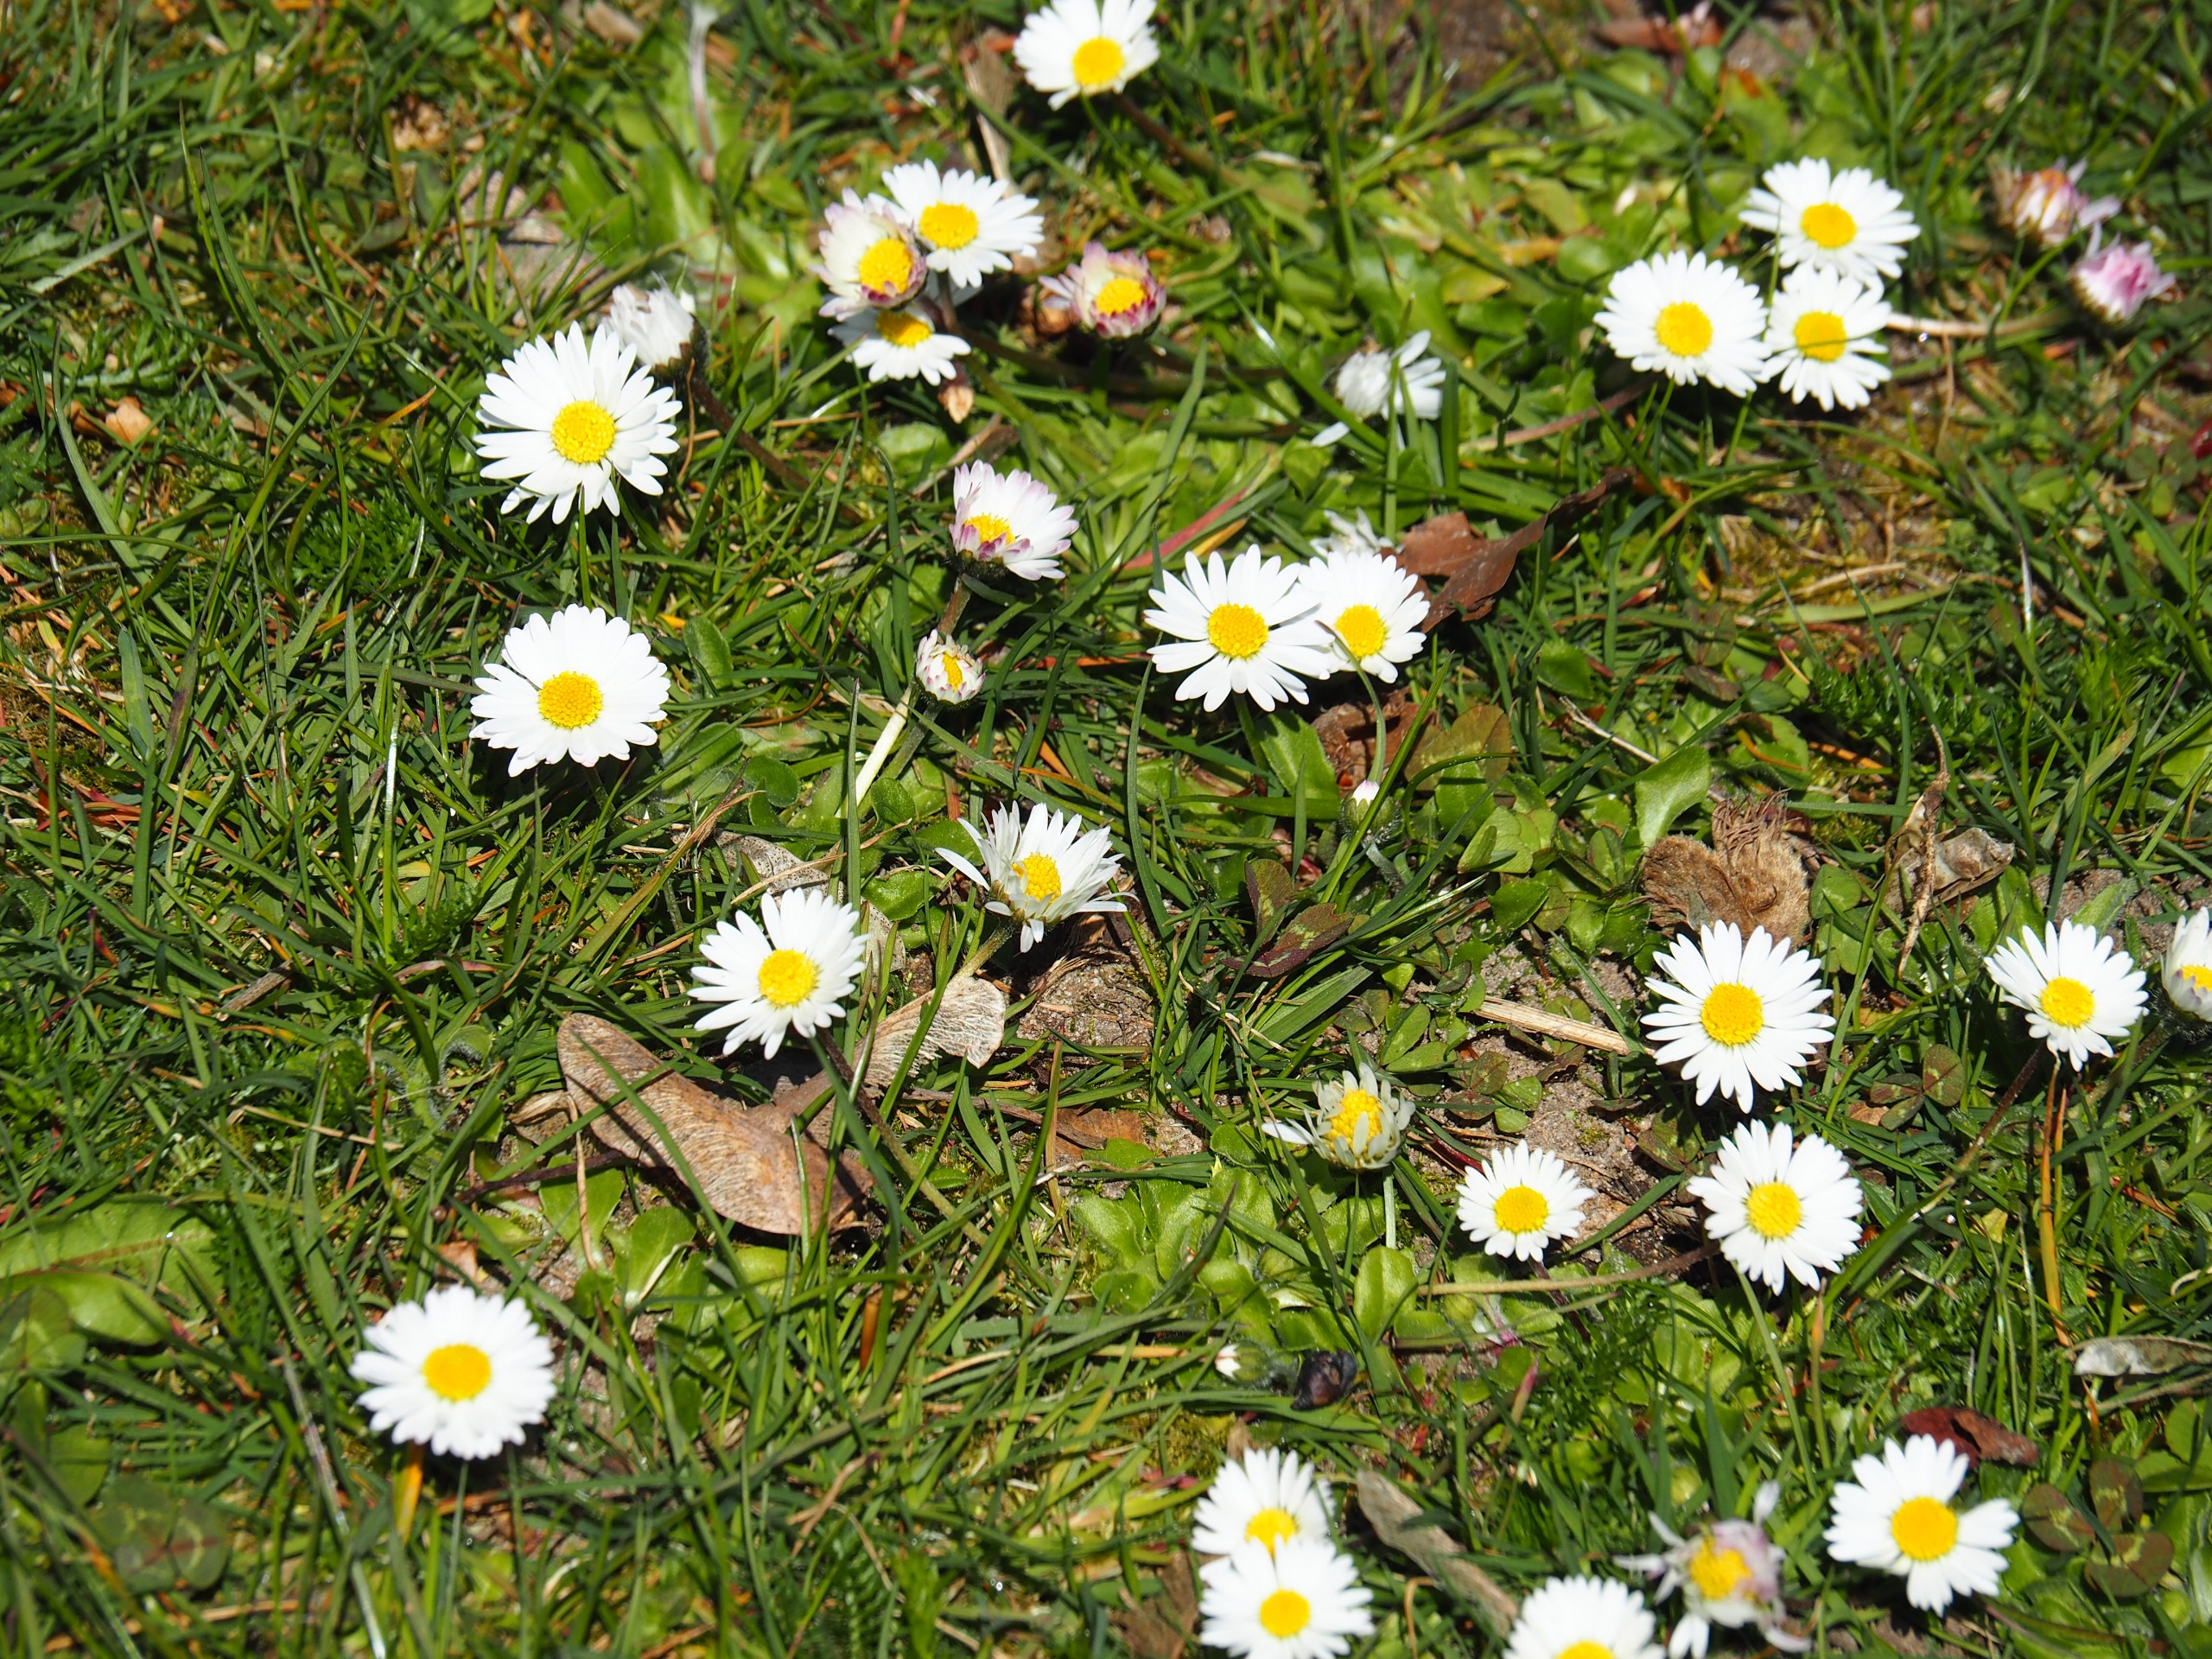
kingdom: Plantae
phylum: Tracheophyta
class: Magnoliopsida
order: Asterales
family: Asteraceae
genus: Bellis
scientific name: Bellis perennis
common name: Tusindfryd
